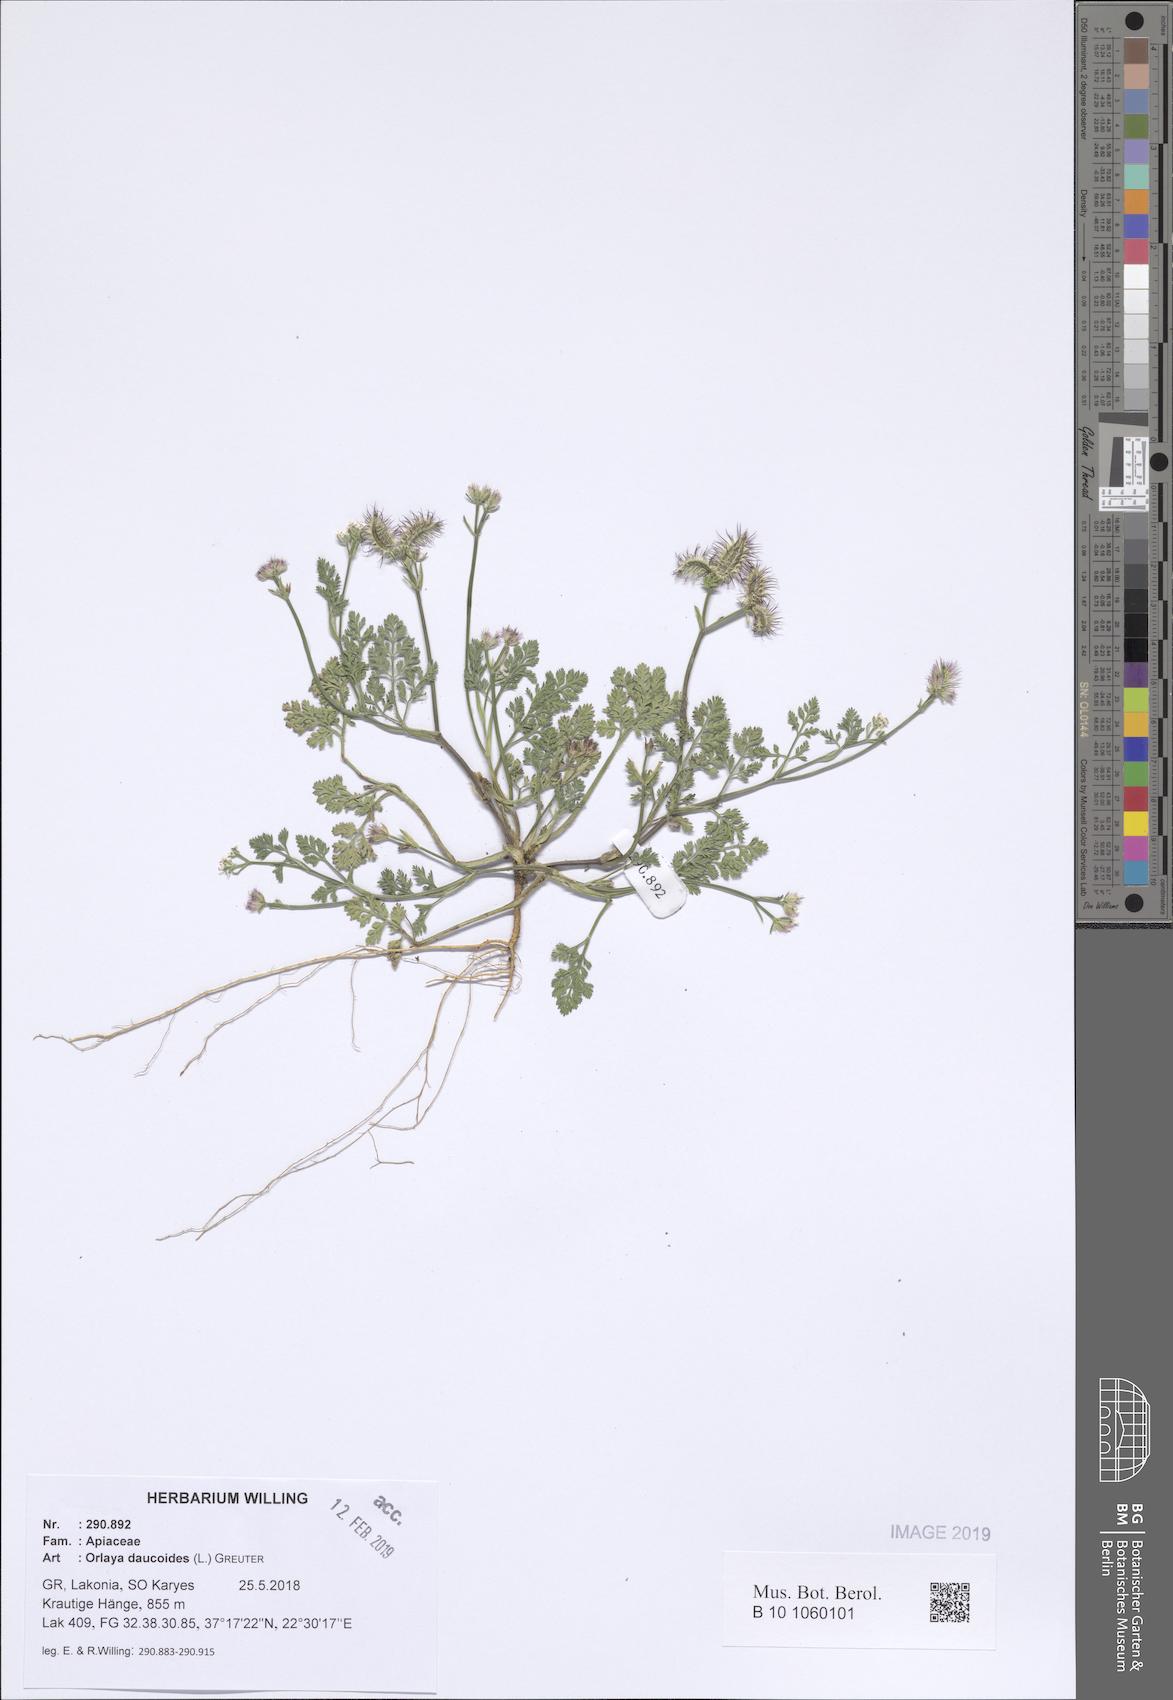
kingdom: Plantae
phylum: Tracheophyta
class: Magnoliopsida
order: Apiales
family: Apiaceae
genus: Orlaya
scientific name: Orlaya daucoides
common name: Flat-fruit orlaya
